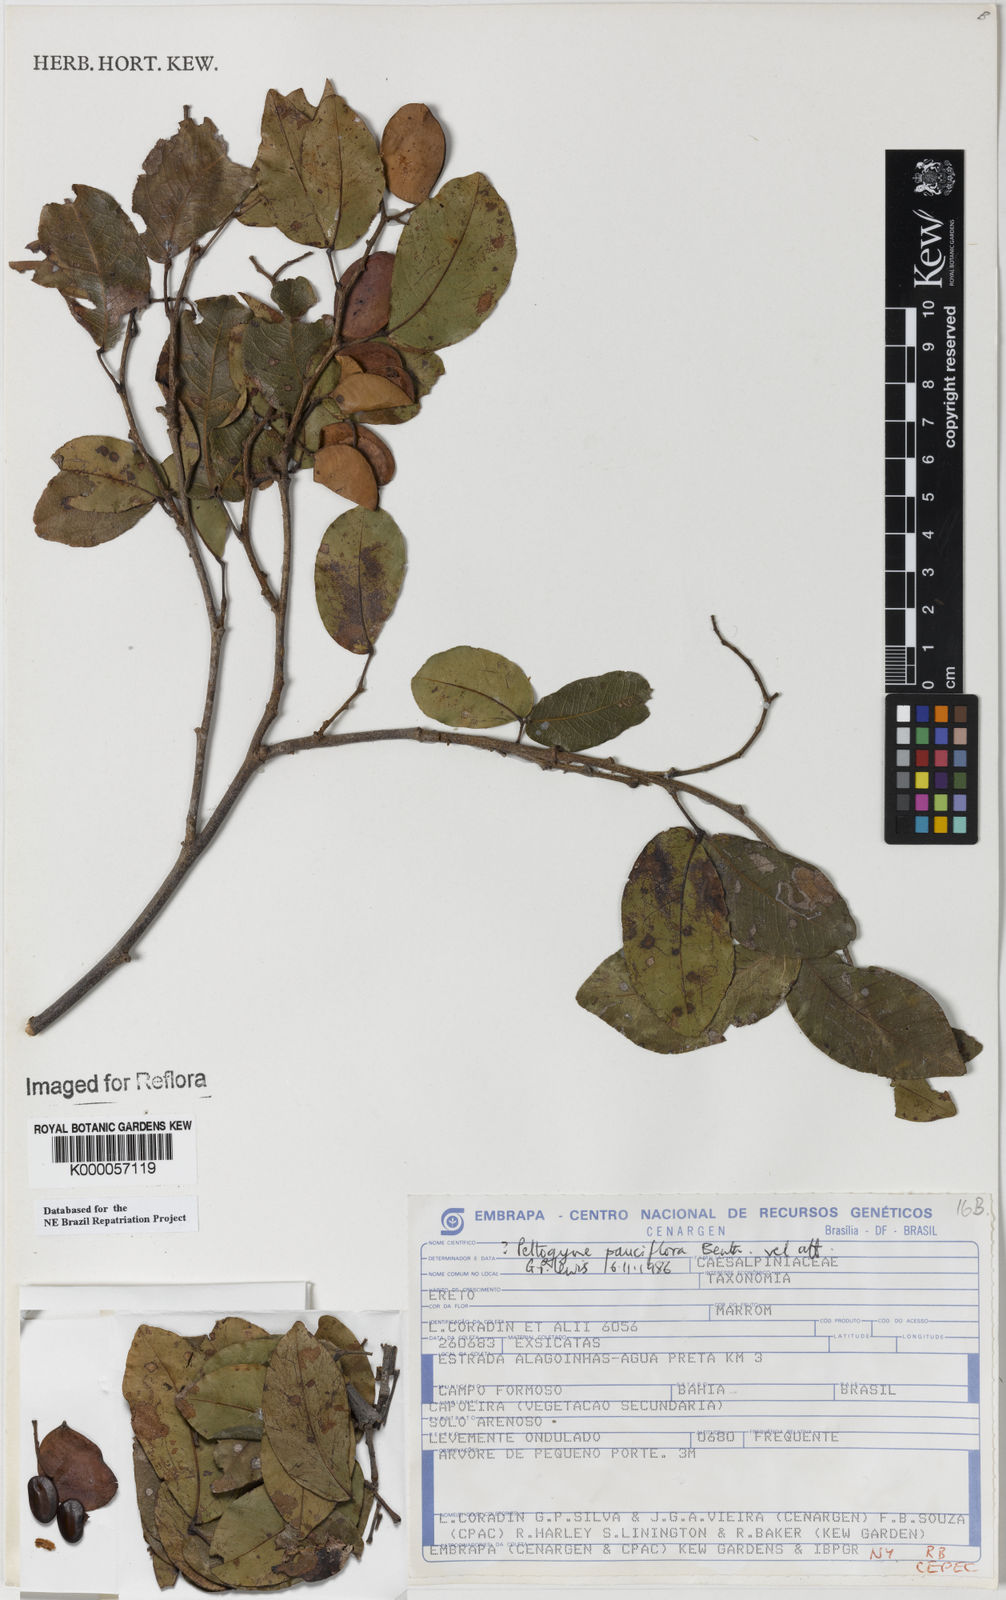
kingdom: Plantae
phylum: Tracheophyta
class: Magnoliopsida
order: Fabales
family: Fabaceae
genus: Peltogyne
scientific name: Peltogyne pauciflora
